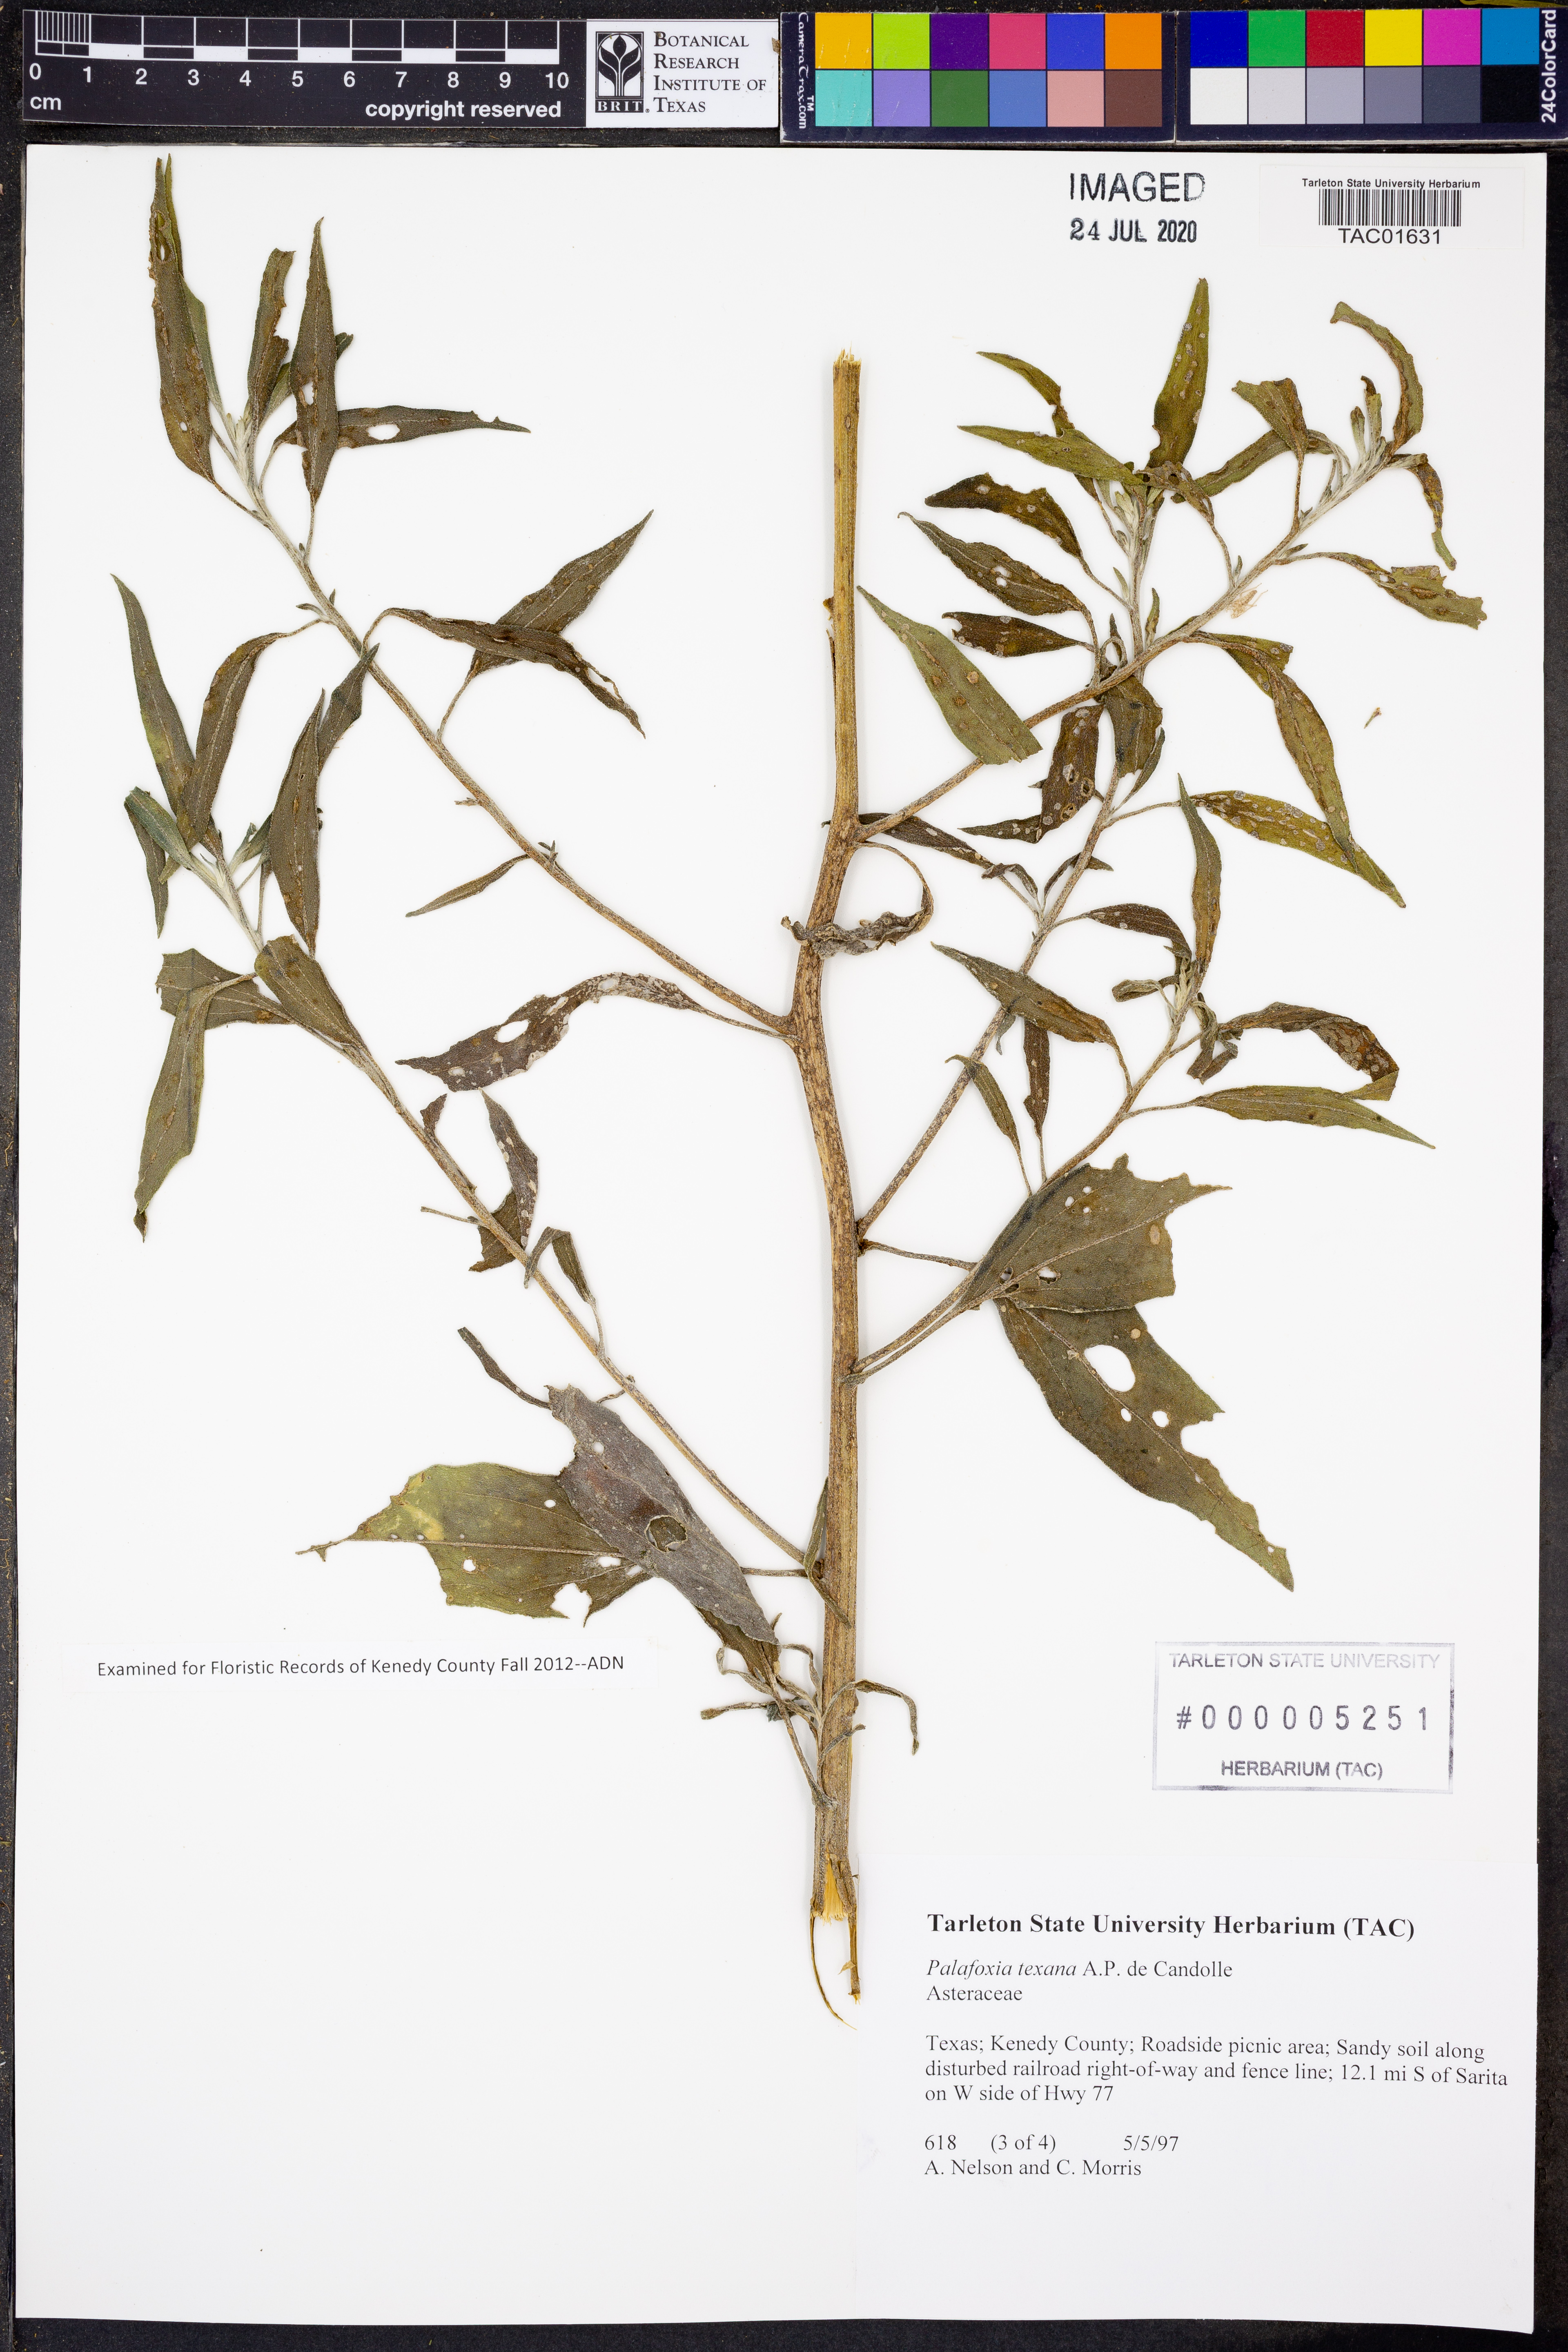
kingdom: Plantae
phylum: Tracheophyta
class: Magnoliopsida
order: Asterales
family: Asteraceae
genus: Palafoxia
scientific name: Palafoxia texana
